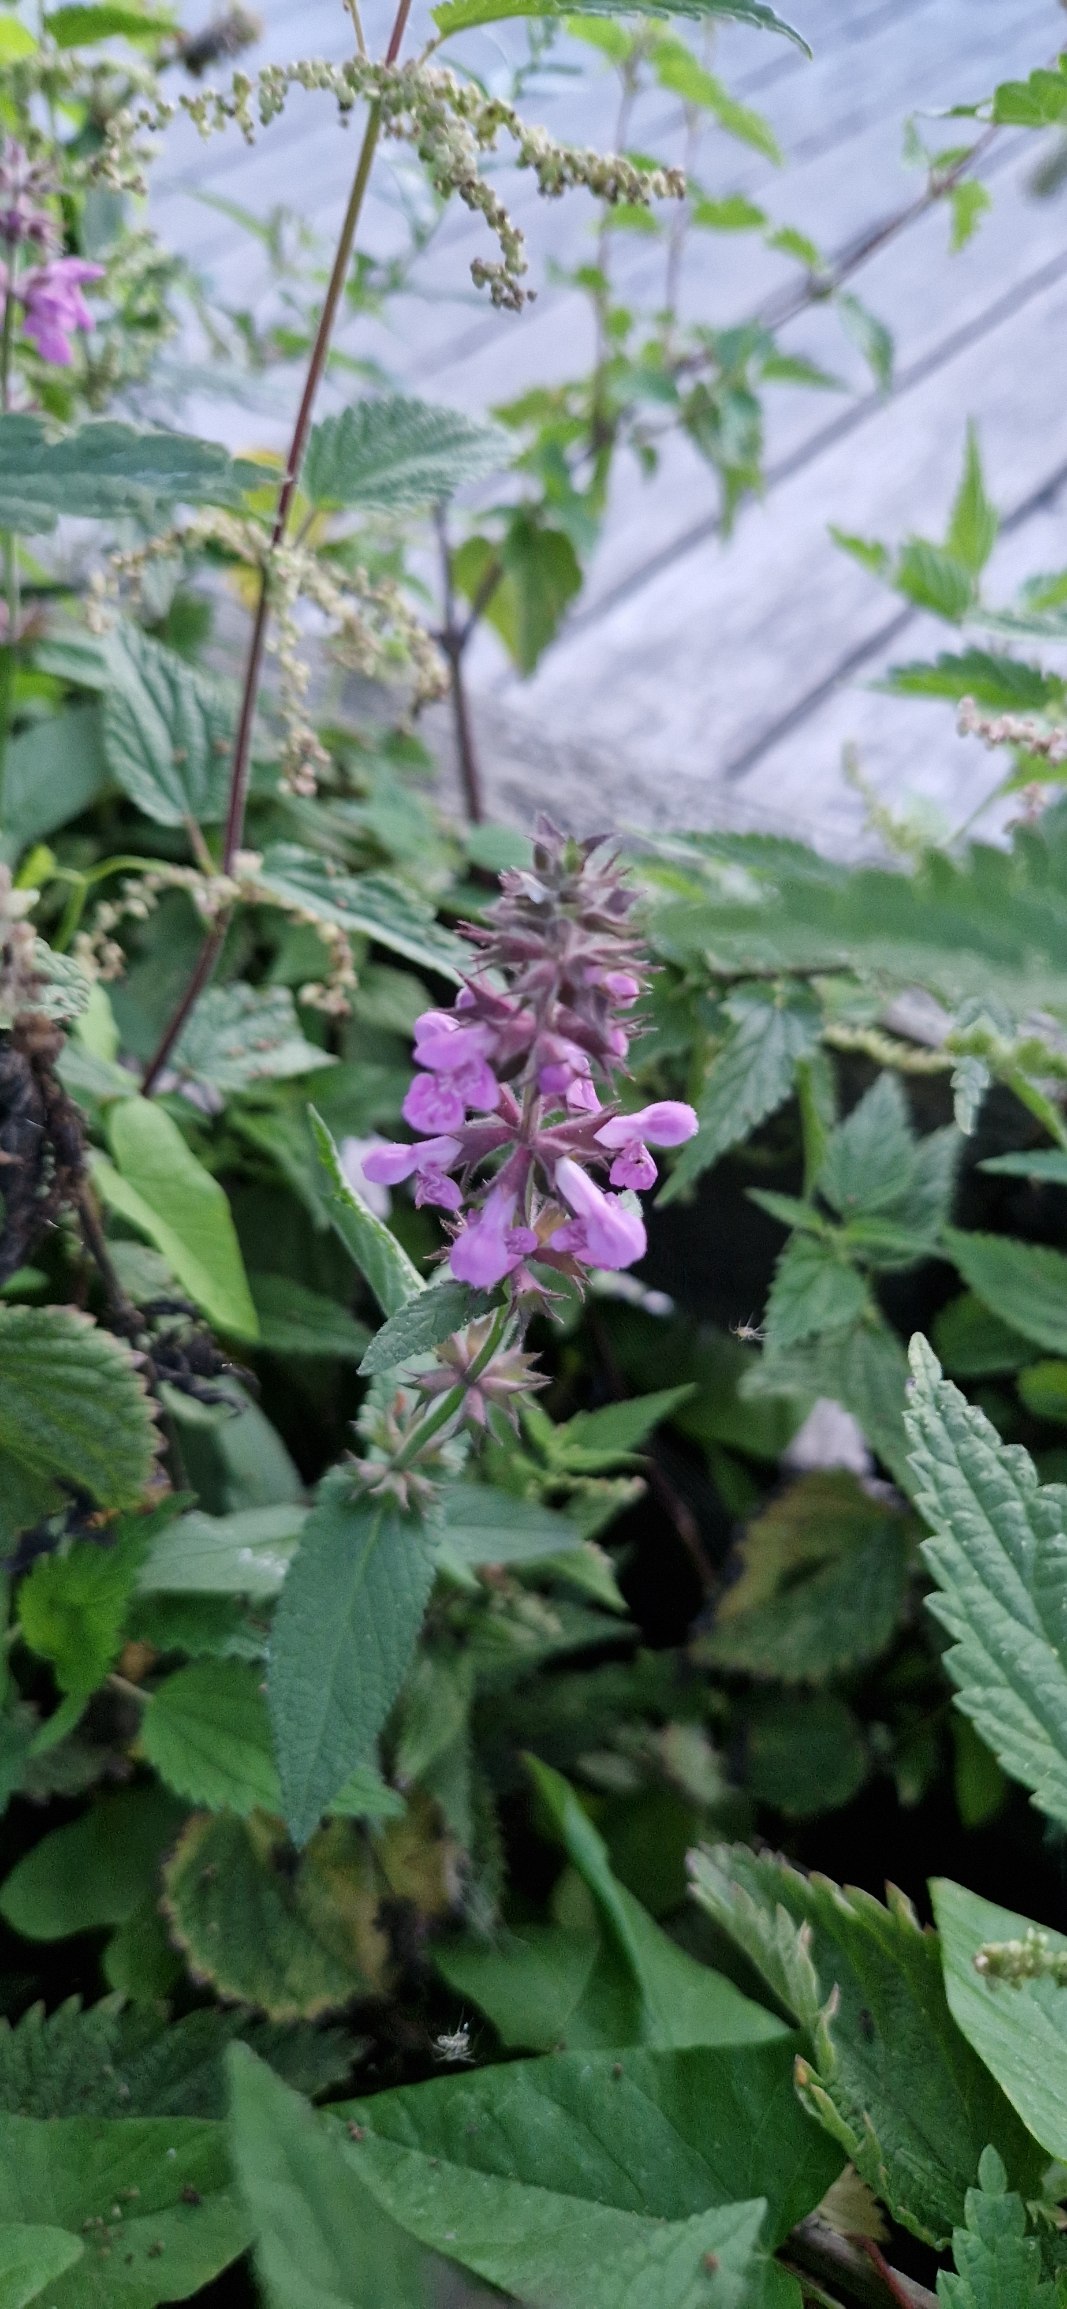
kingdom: Plantae
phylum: Tracheophyta
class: Magnoliopsida
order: Lamiales
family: Lamiaceae
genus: Stachys
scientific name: Stachys palustris
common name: Kær-galtetand
